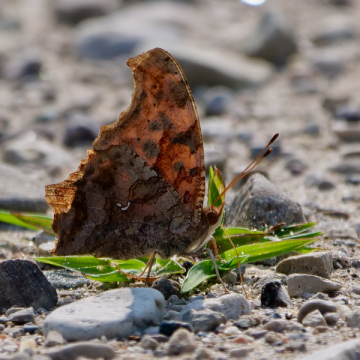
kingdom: Animalia
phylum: Arthropoda
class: Insecta
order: Lepidoptera
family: Nymphalidae
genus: Polygonia
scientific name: Polygonia interrogationis
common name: Question Mark
